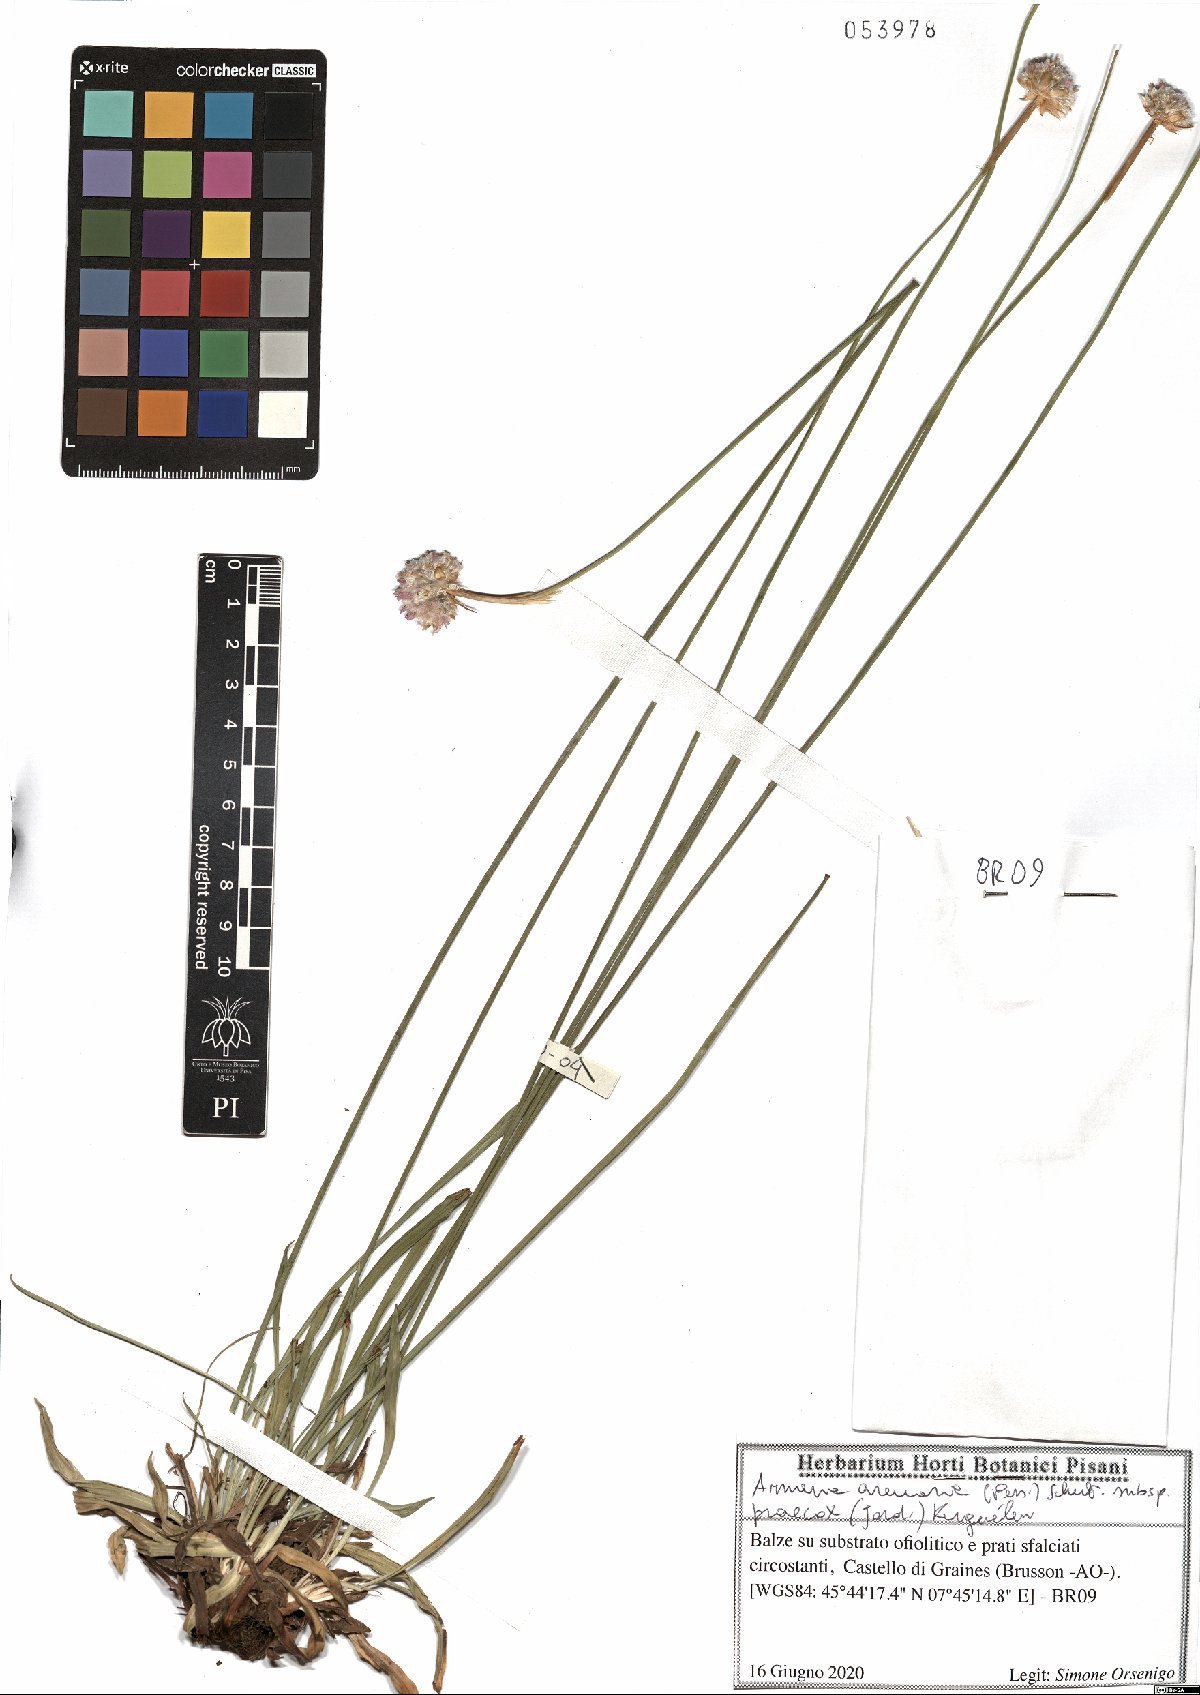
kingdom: Plantae
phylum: Tracheophyta
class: Magnoliopsida
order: Caryophyllales
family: Plumbaginaceae
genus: Armeria
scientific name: Armeria arenaria
